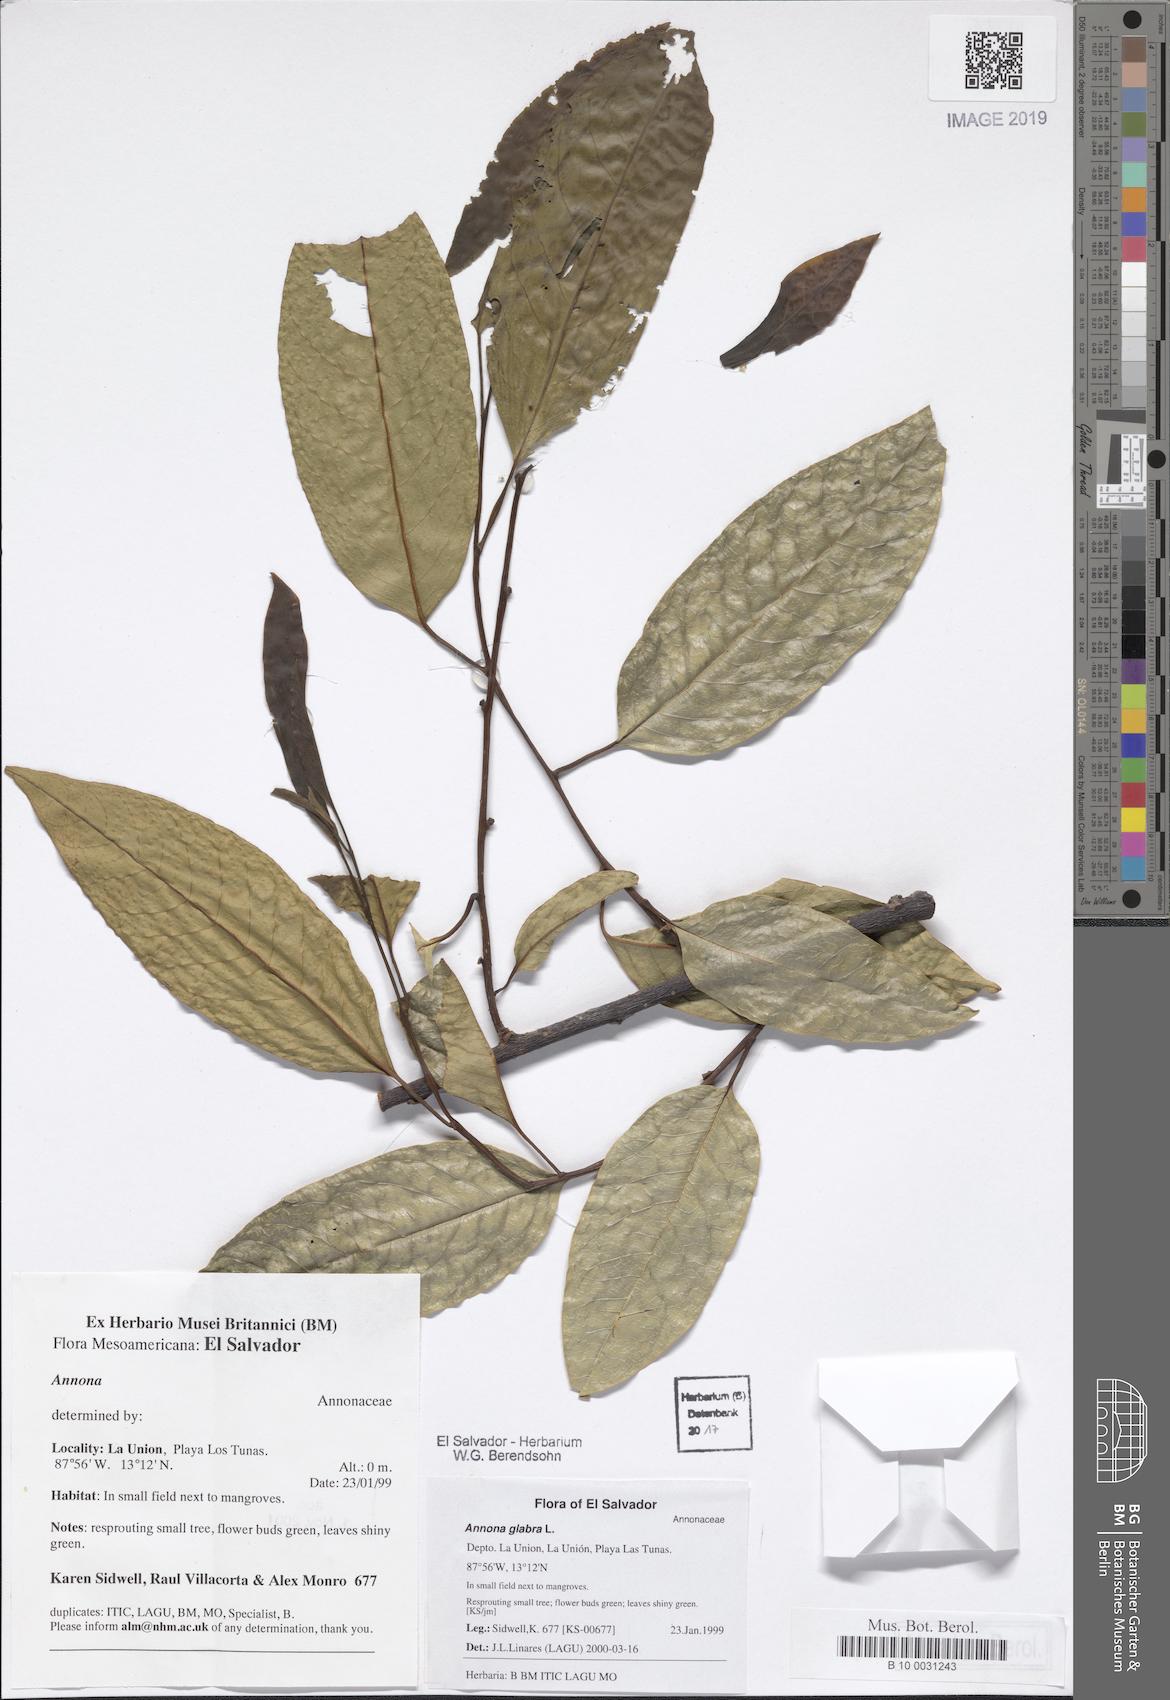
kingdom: Plantae
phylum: Tracheophyta
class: Magnoliopsida
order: Magnoliales
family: Annonaceae
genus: Annona
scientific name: Annona glabra
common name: Monkey apple
